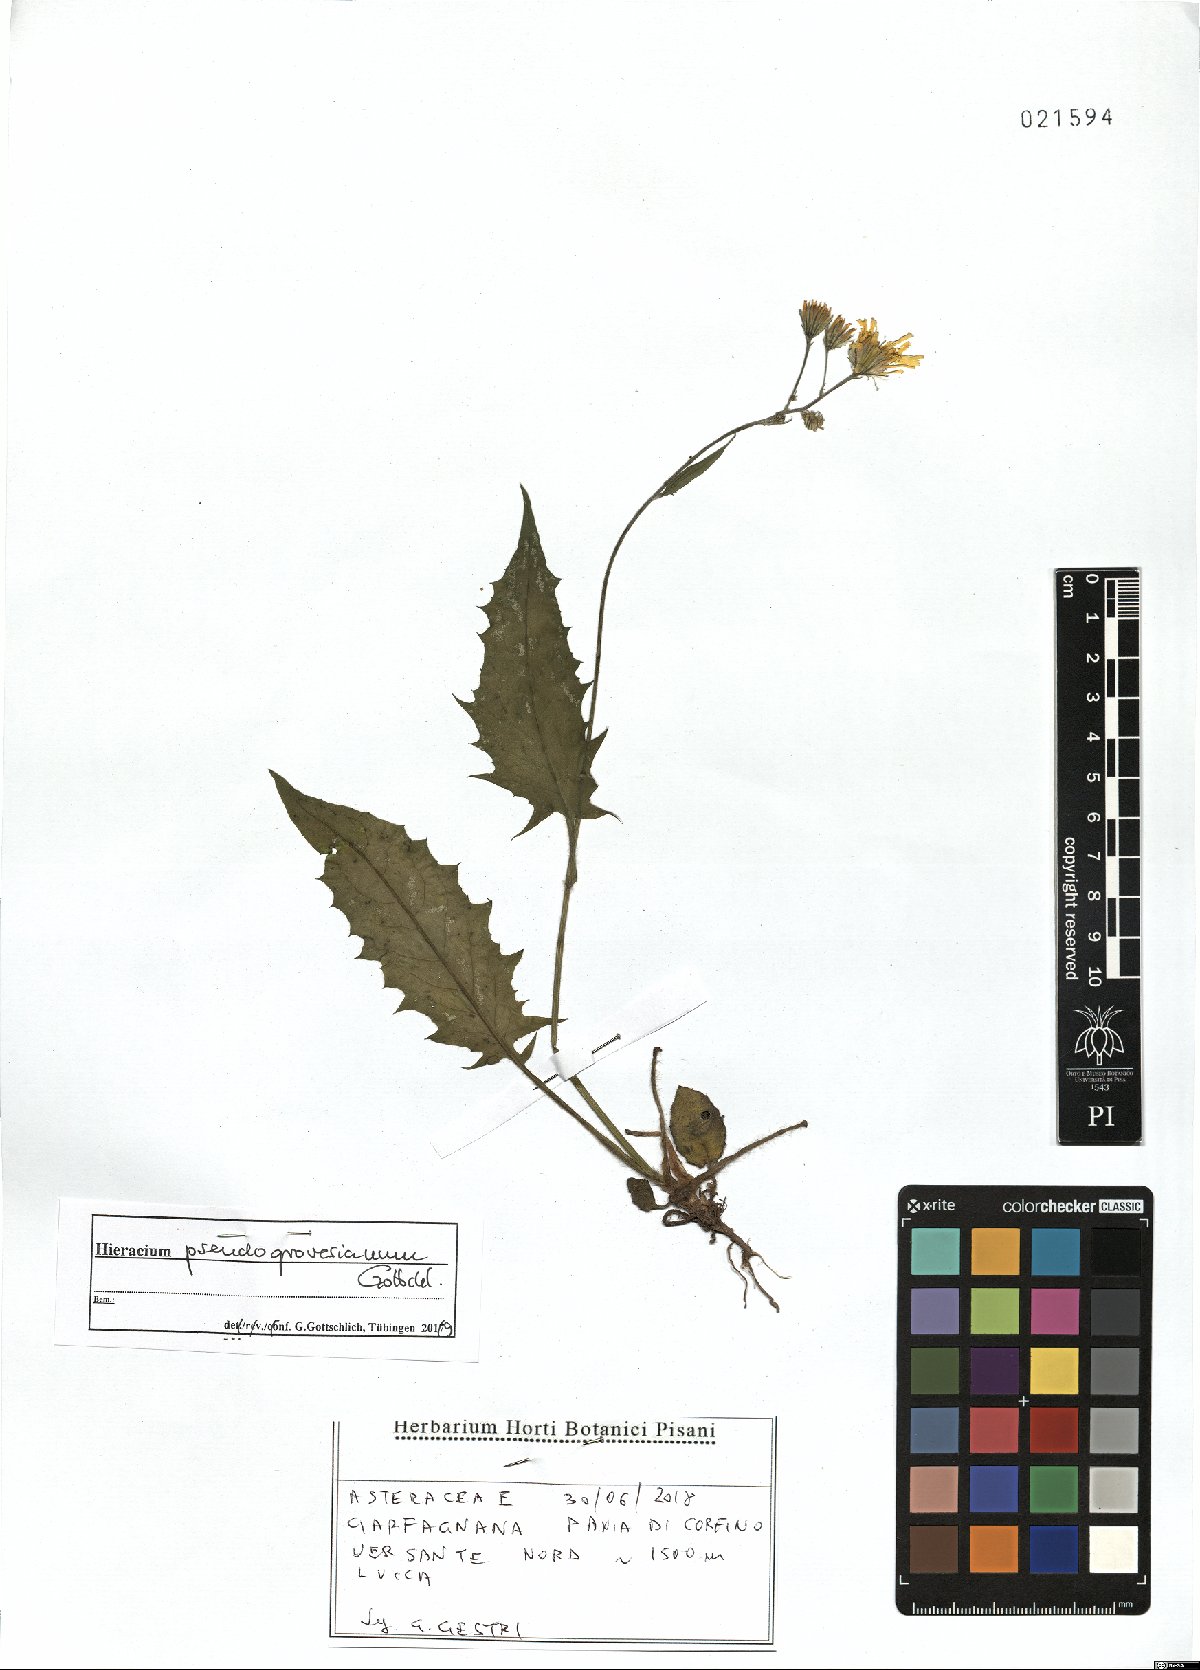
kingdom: Plantae
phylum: Tracheophyta
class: Magnoliopsida
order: Asterales
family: Asteraceae
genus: Hieracium
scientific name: Hieracium pseudogrovesianum
